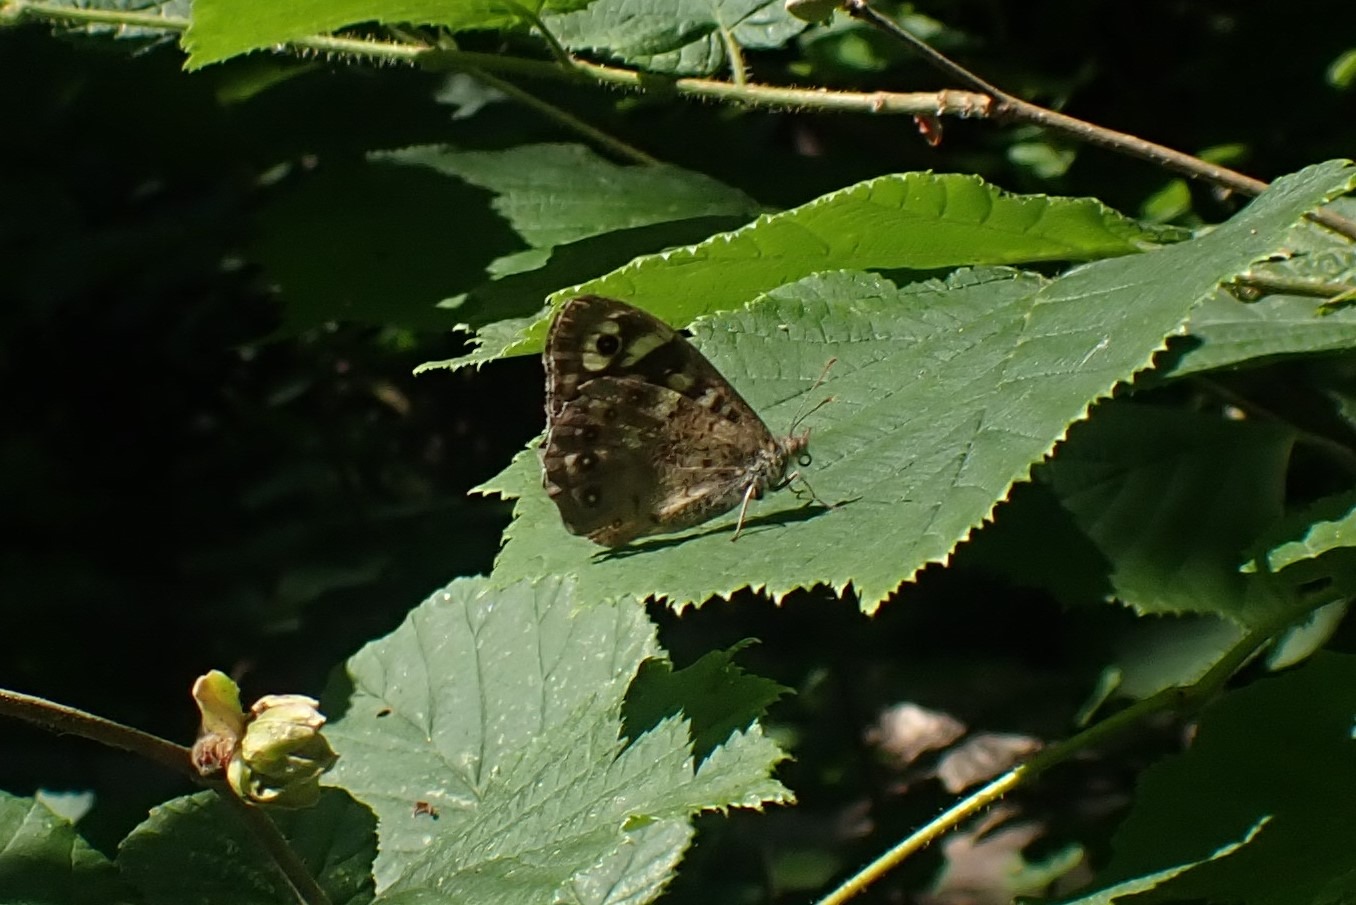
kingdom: Animalia
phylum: Arthropoda
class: Insecta
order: Lepidoptera
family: Nymphalidae
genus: Pararge
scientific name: Pararge aegeria
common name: Skovrandøje
